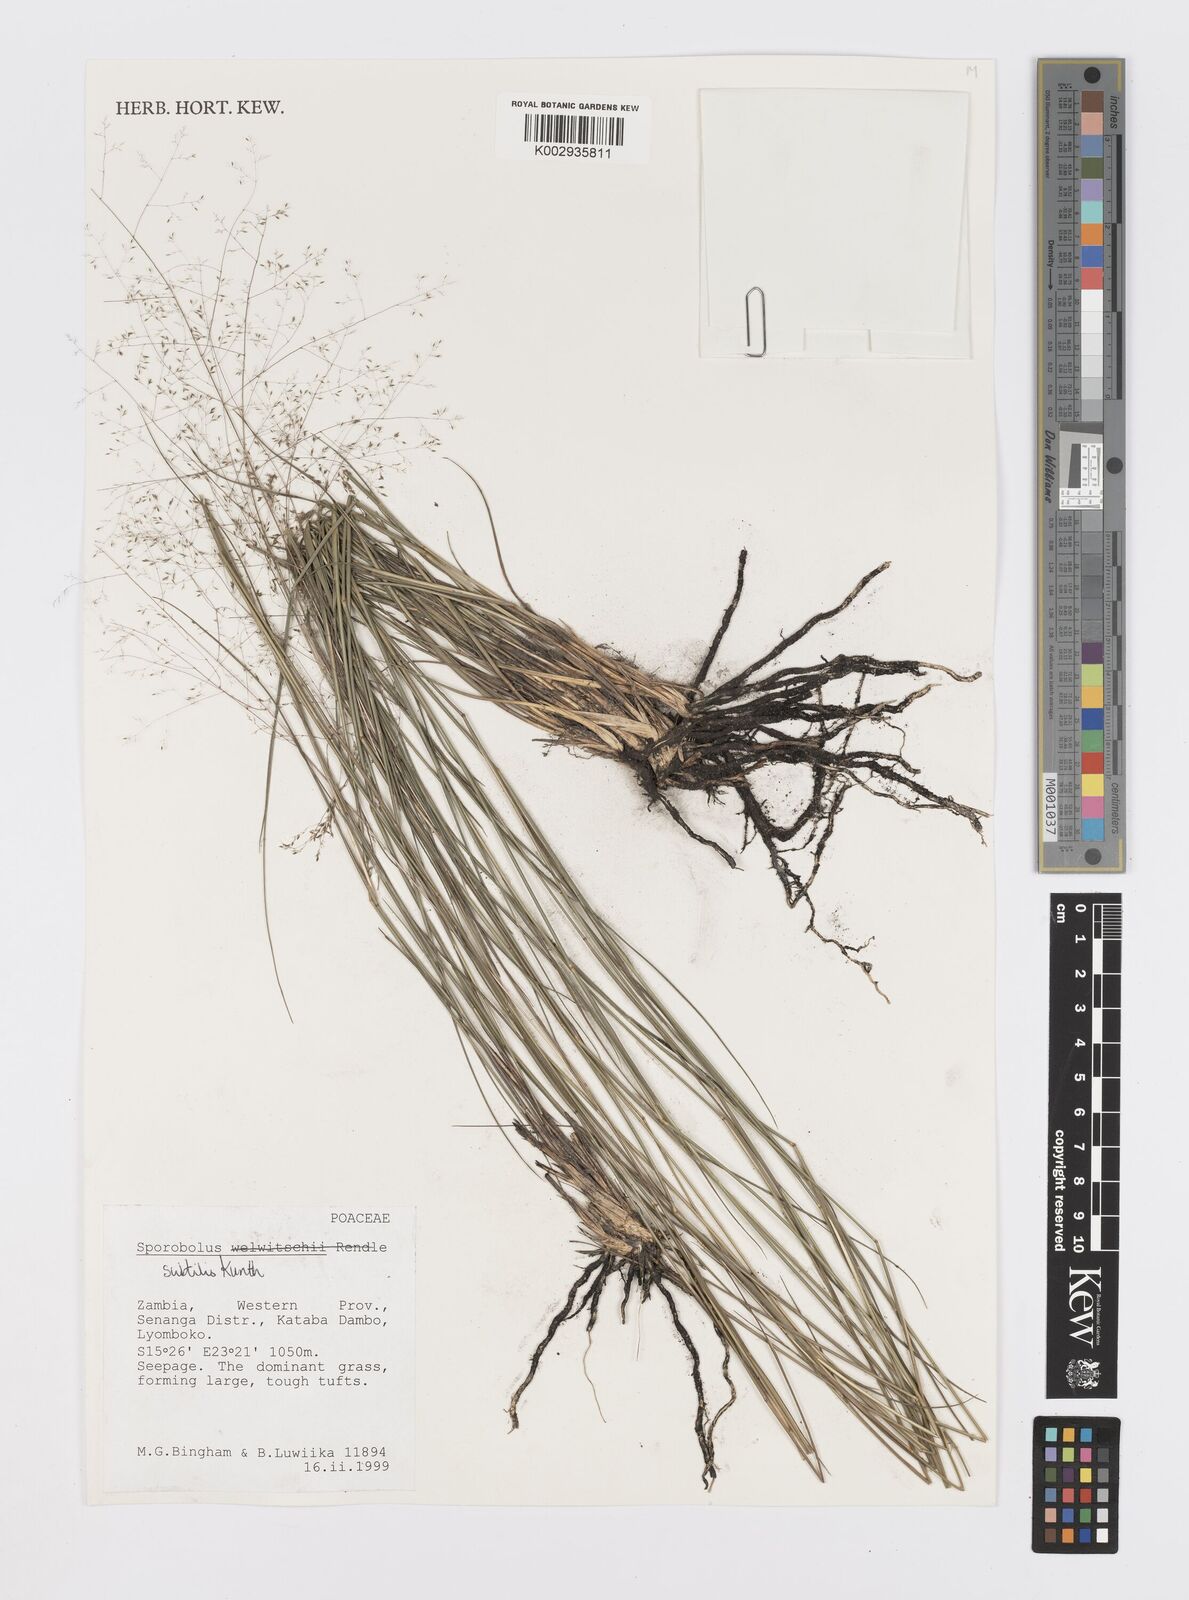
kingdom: Plantae
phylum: Tracheophyta
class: Liliopsida
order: Poales
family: Poaceae
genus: Sporobolus
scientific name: Sporobolus subtilis
